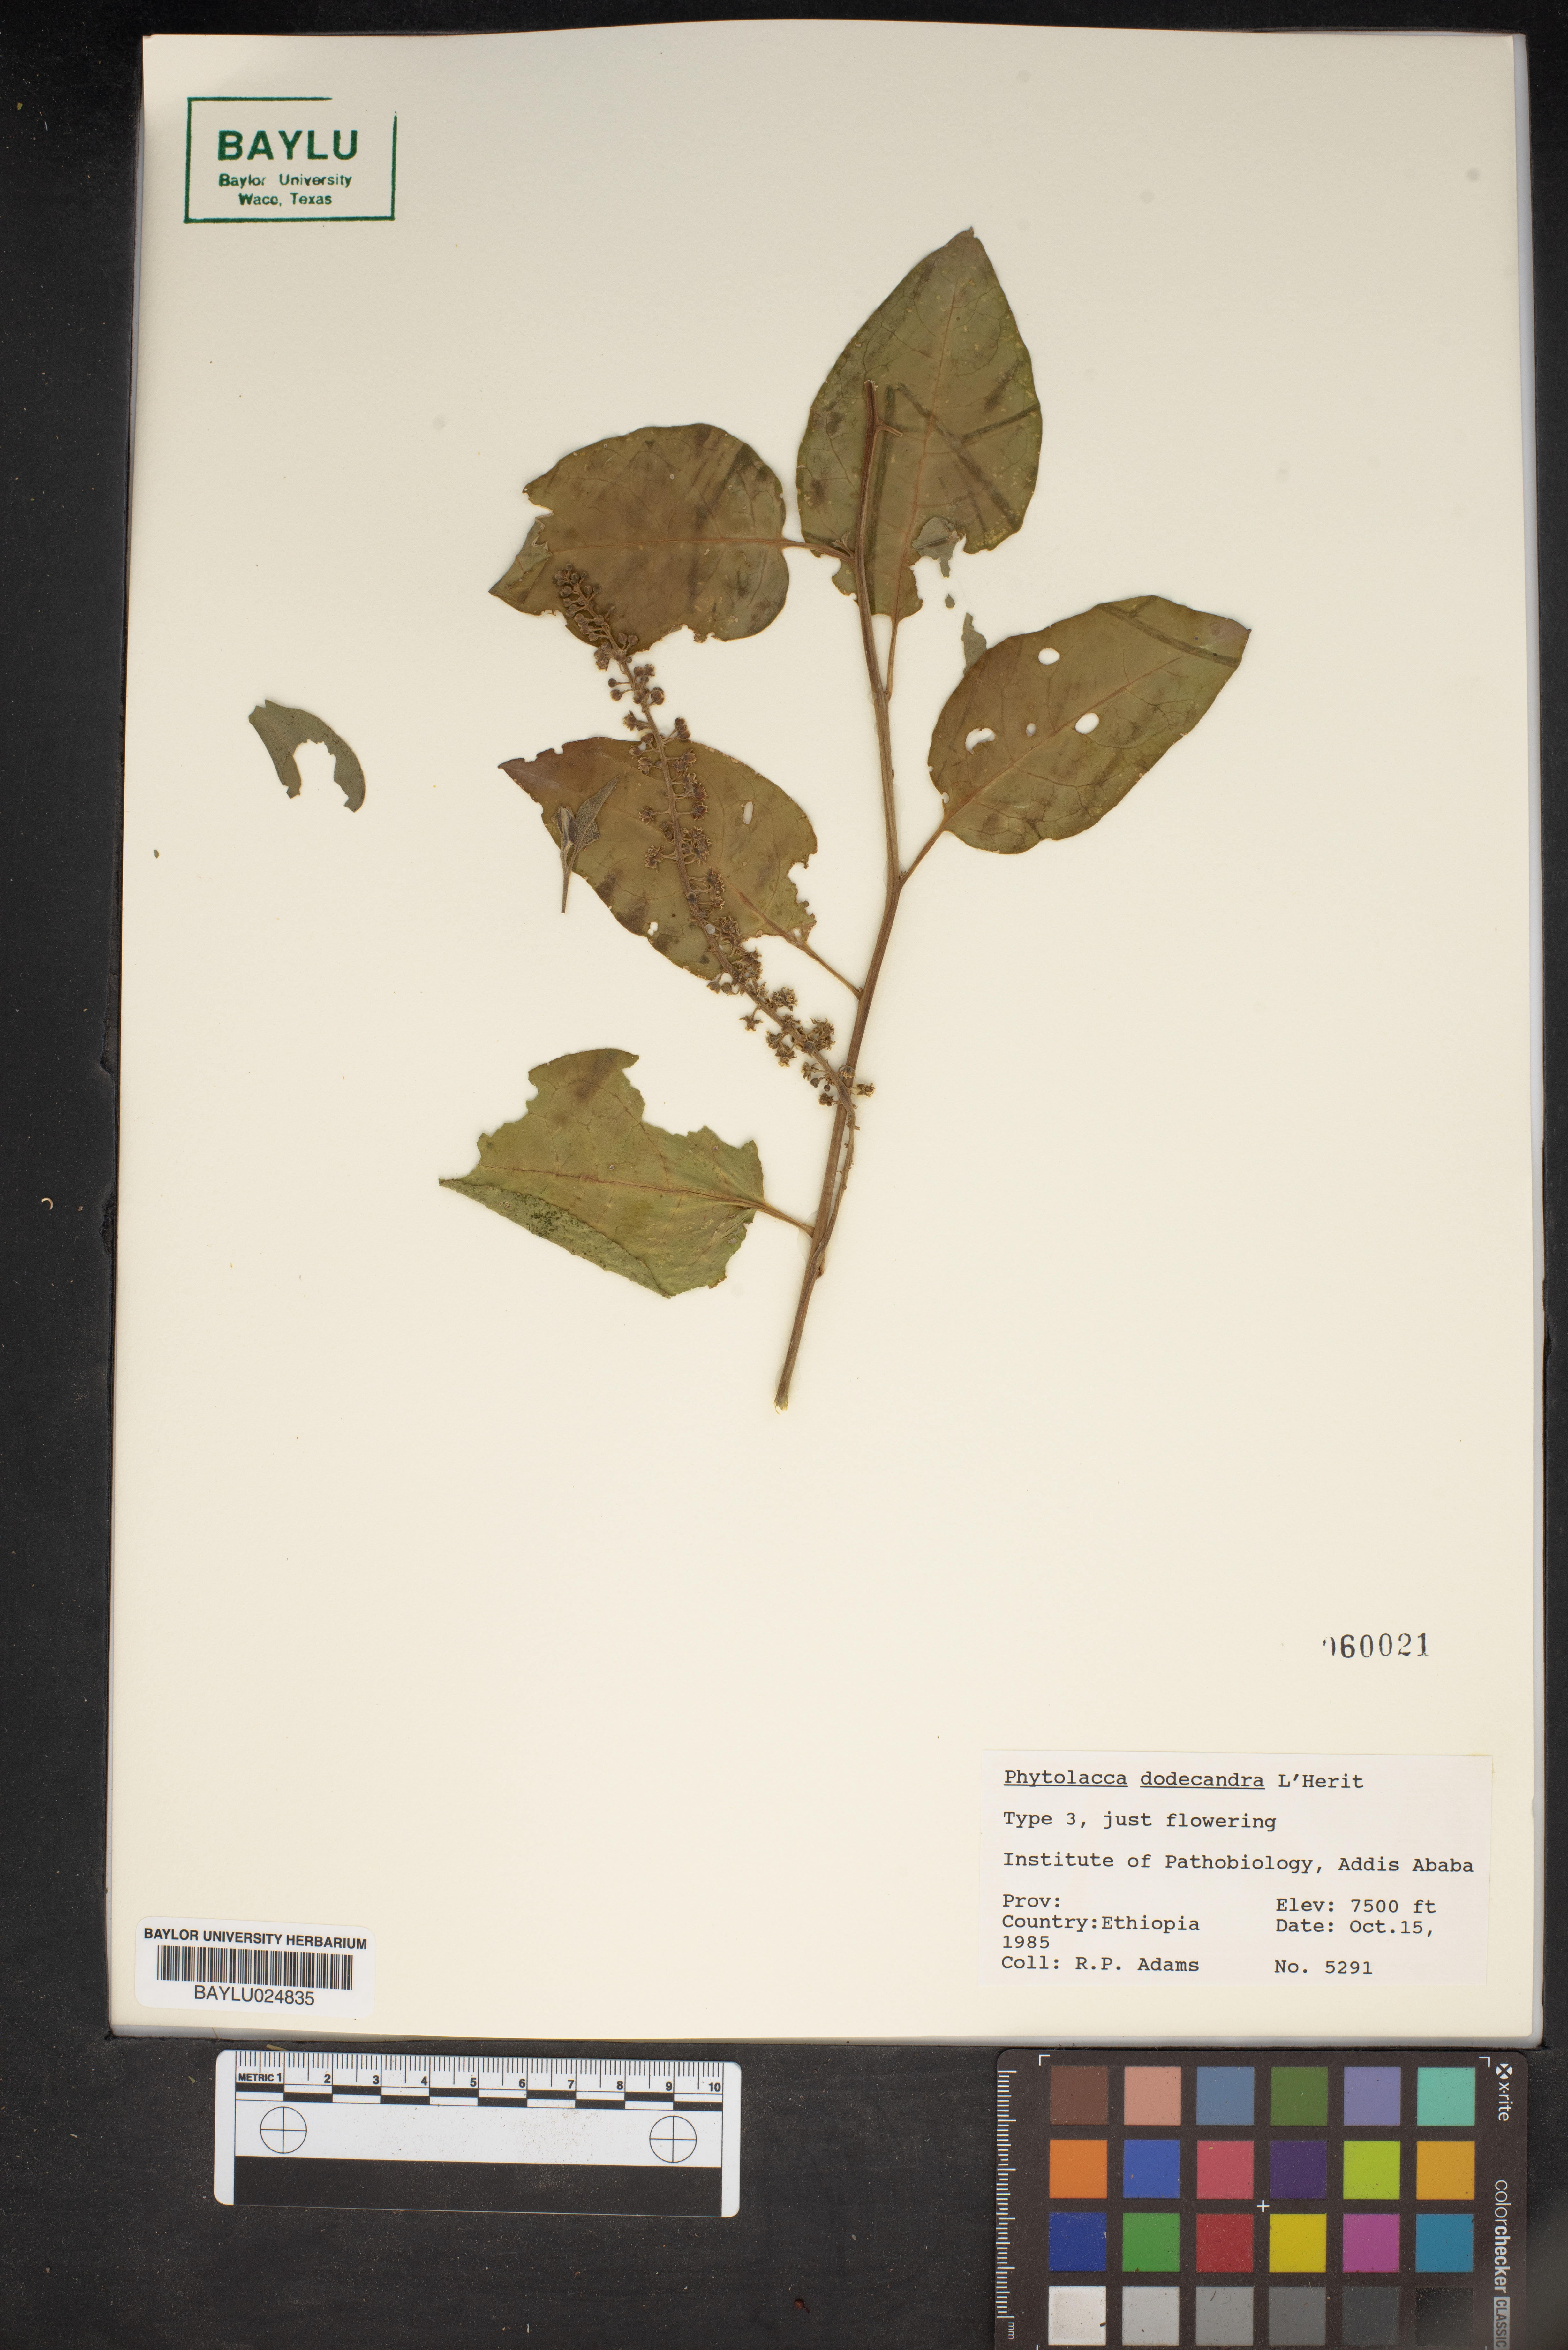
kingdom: Plantae
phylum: Tracheophyta
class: Magnoliopsida
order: Caryophyllales
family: Phytolaccaceae
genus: Phytolacca
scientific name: Phytolacca dodecandra
